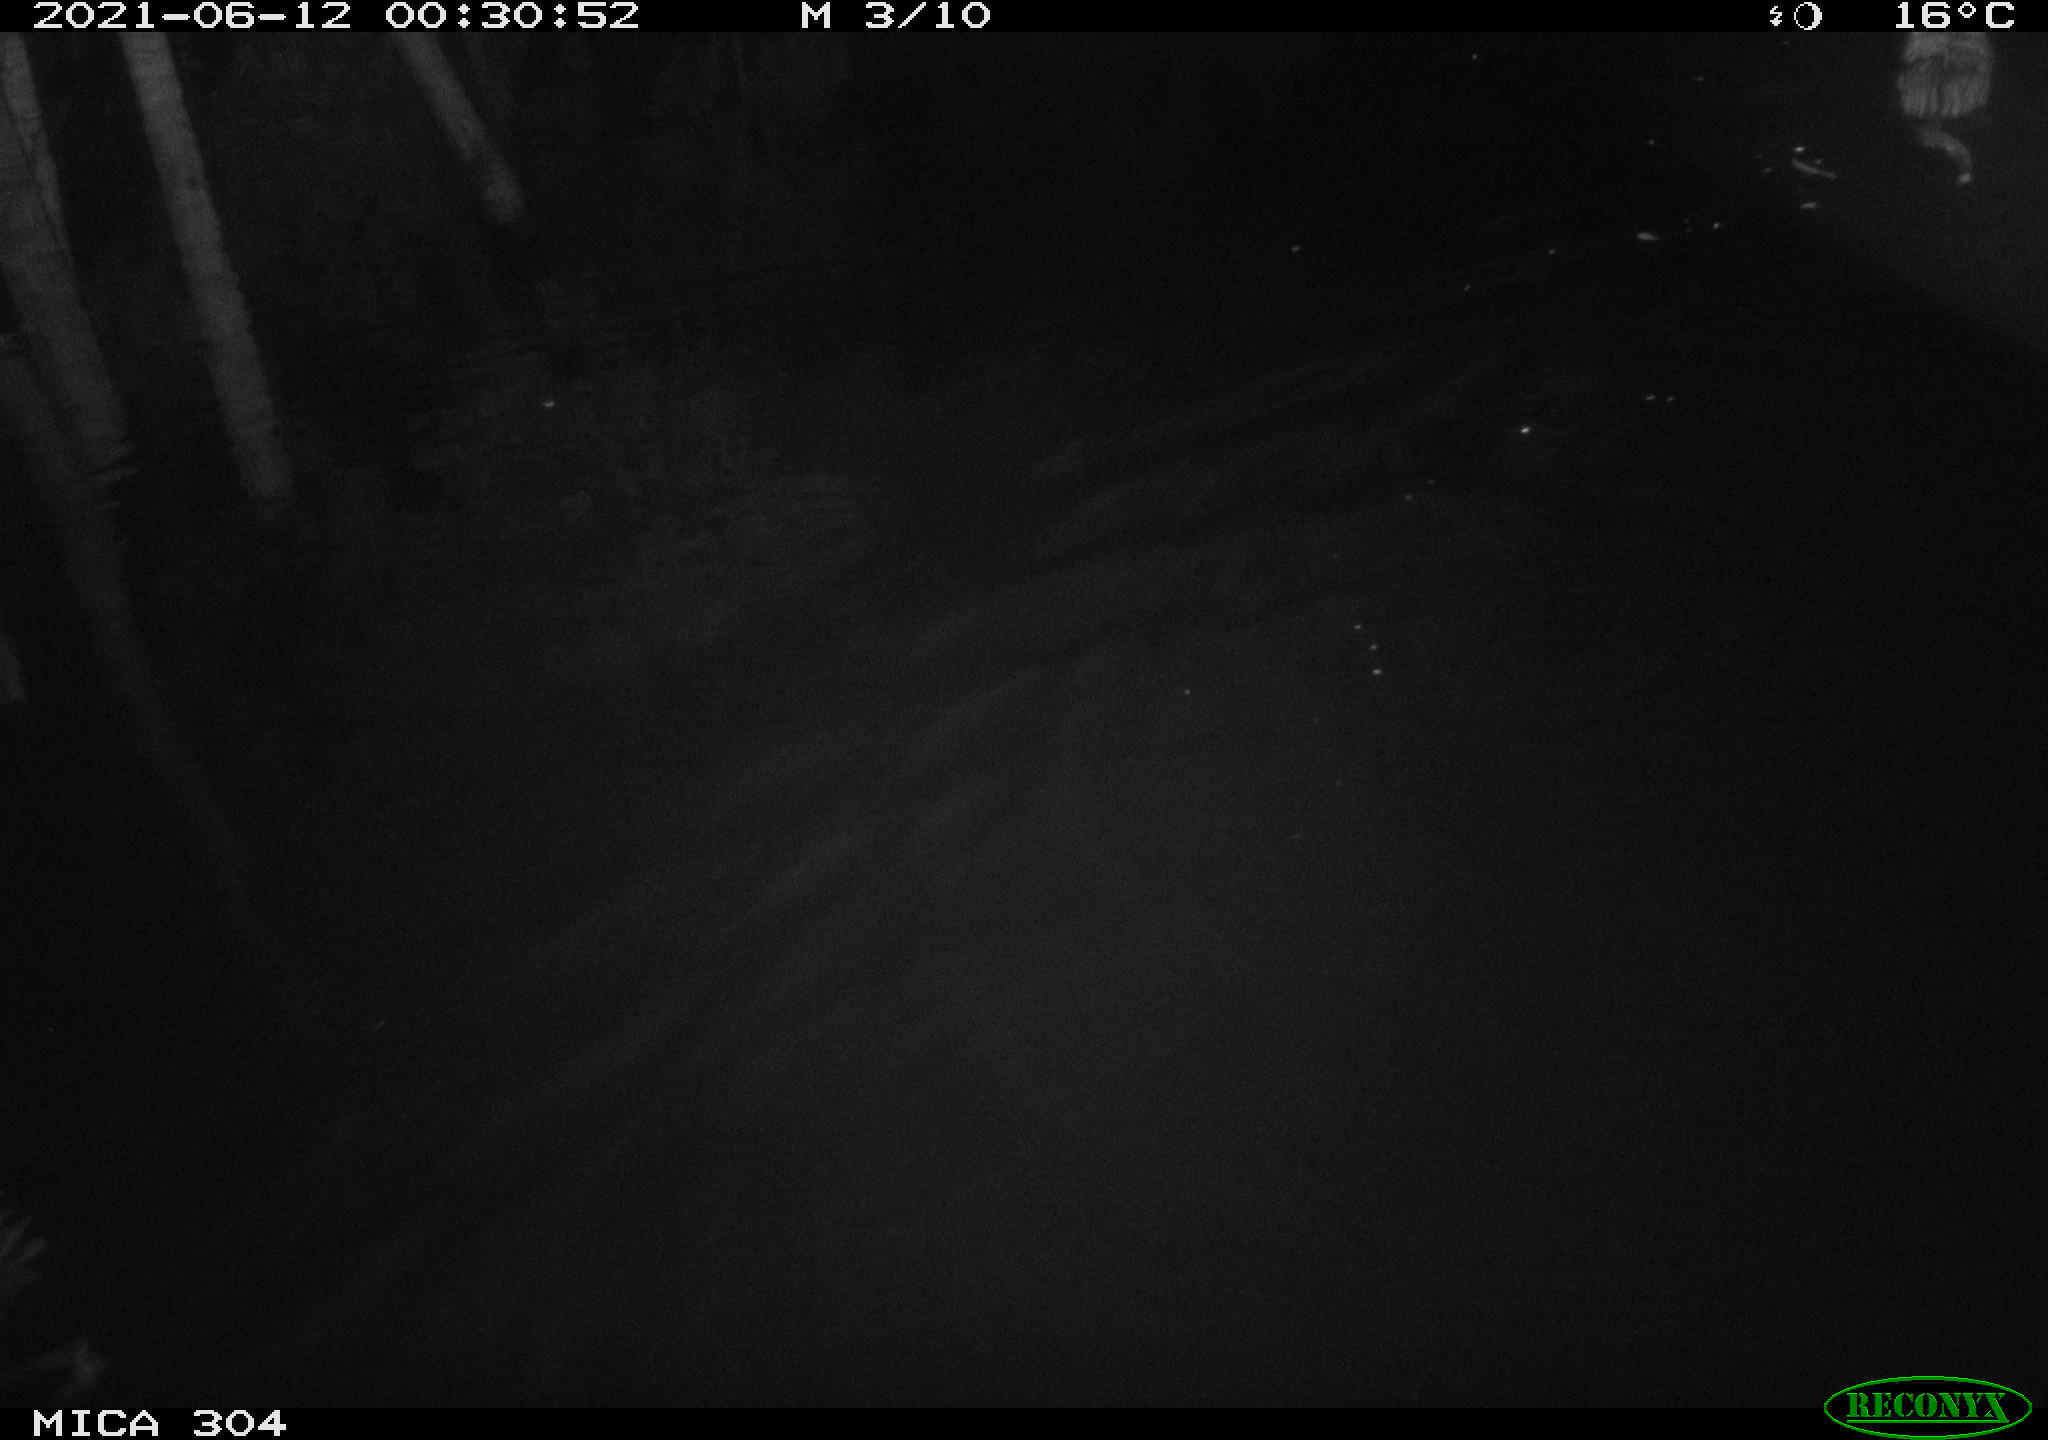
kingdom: Animalia
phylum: Chordata
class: Mammalia
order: Rodentia
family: Cricetidae
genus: Ondatra
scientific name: Ondatra zibethicus
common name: Muskrat
